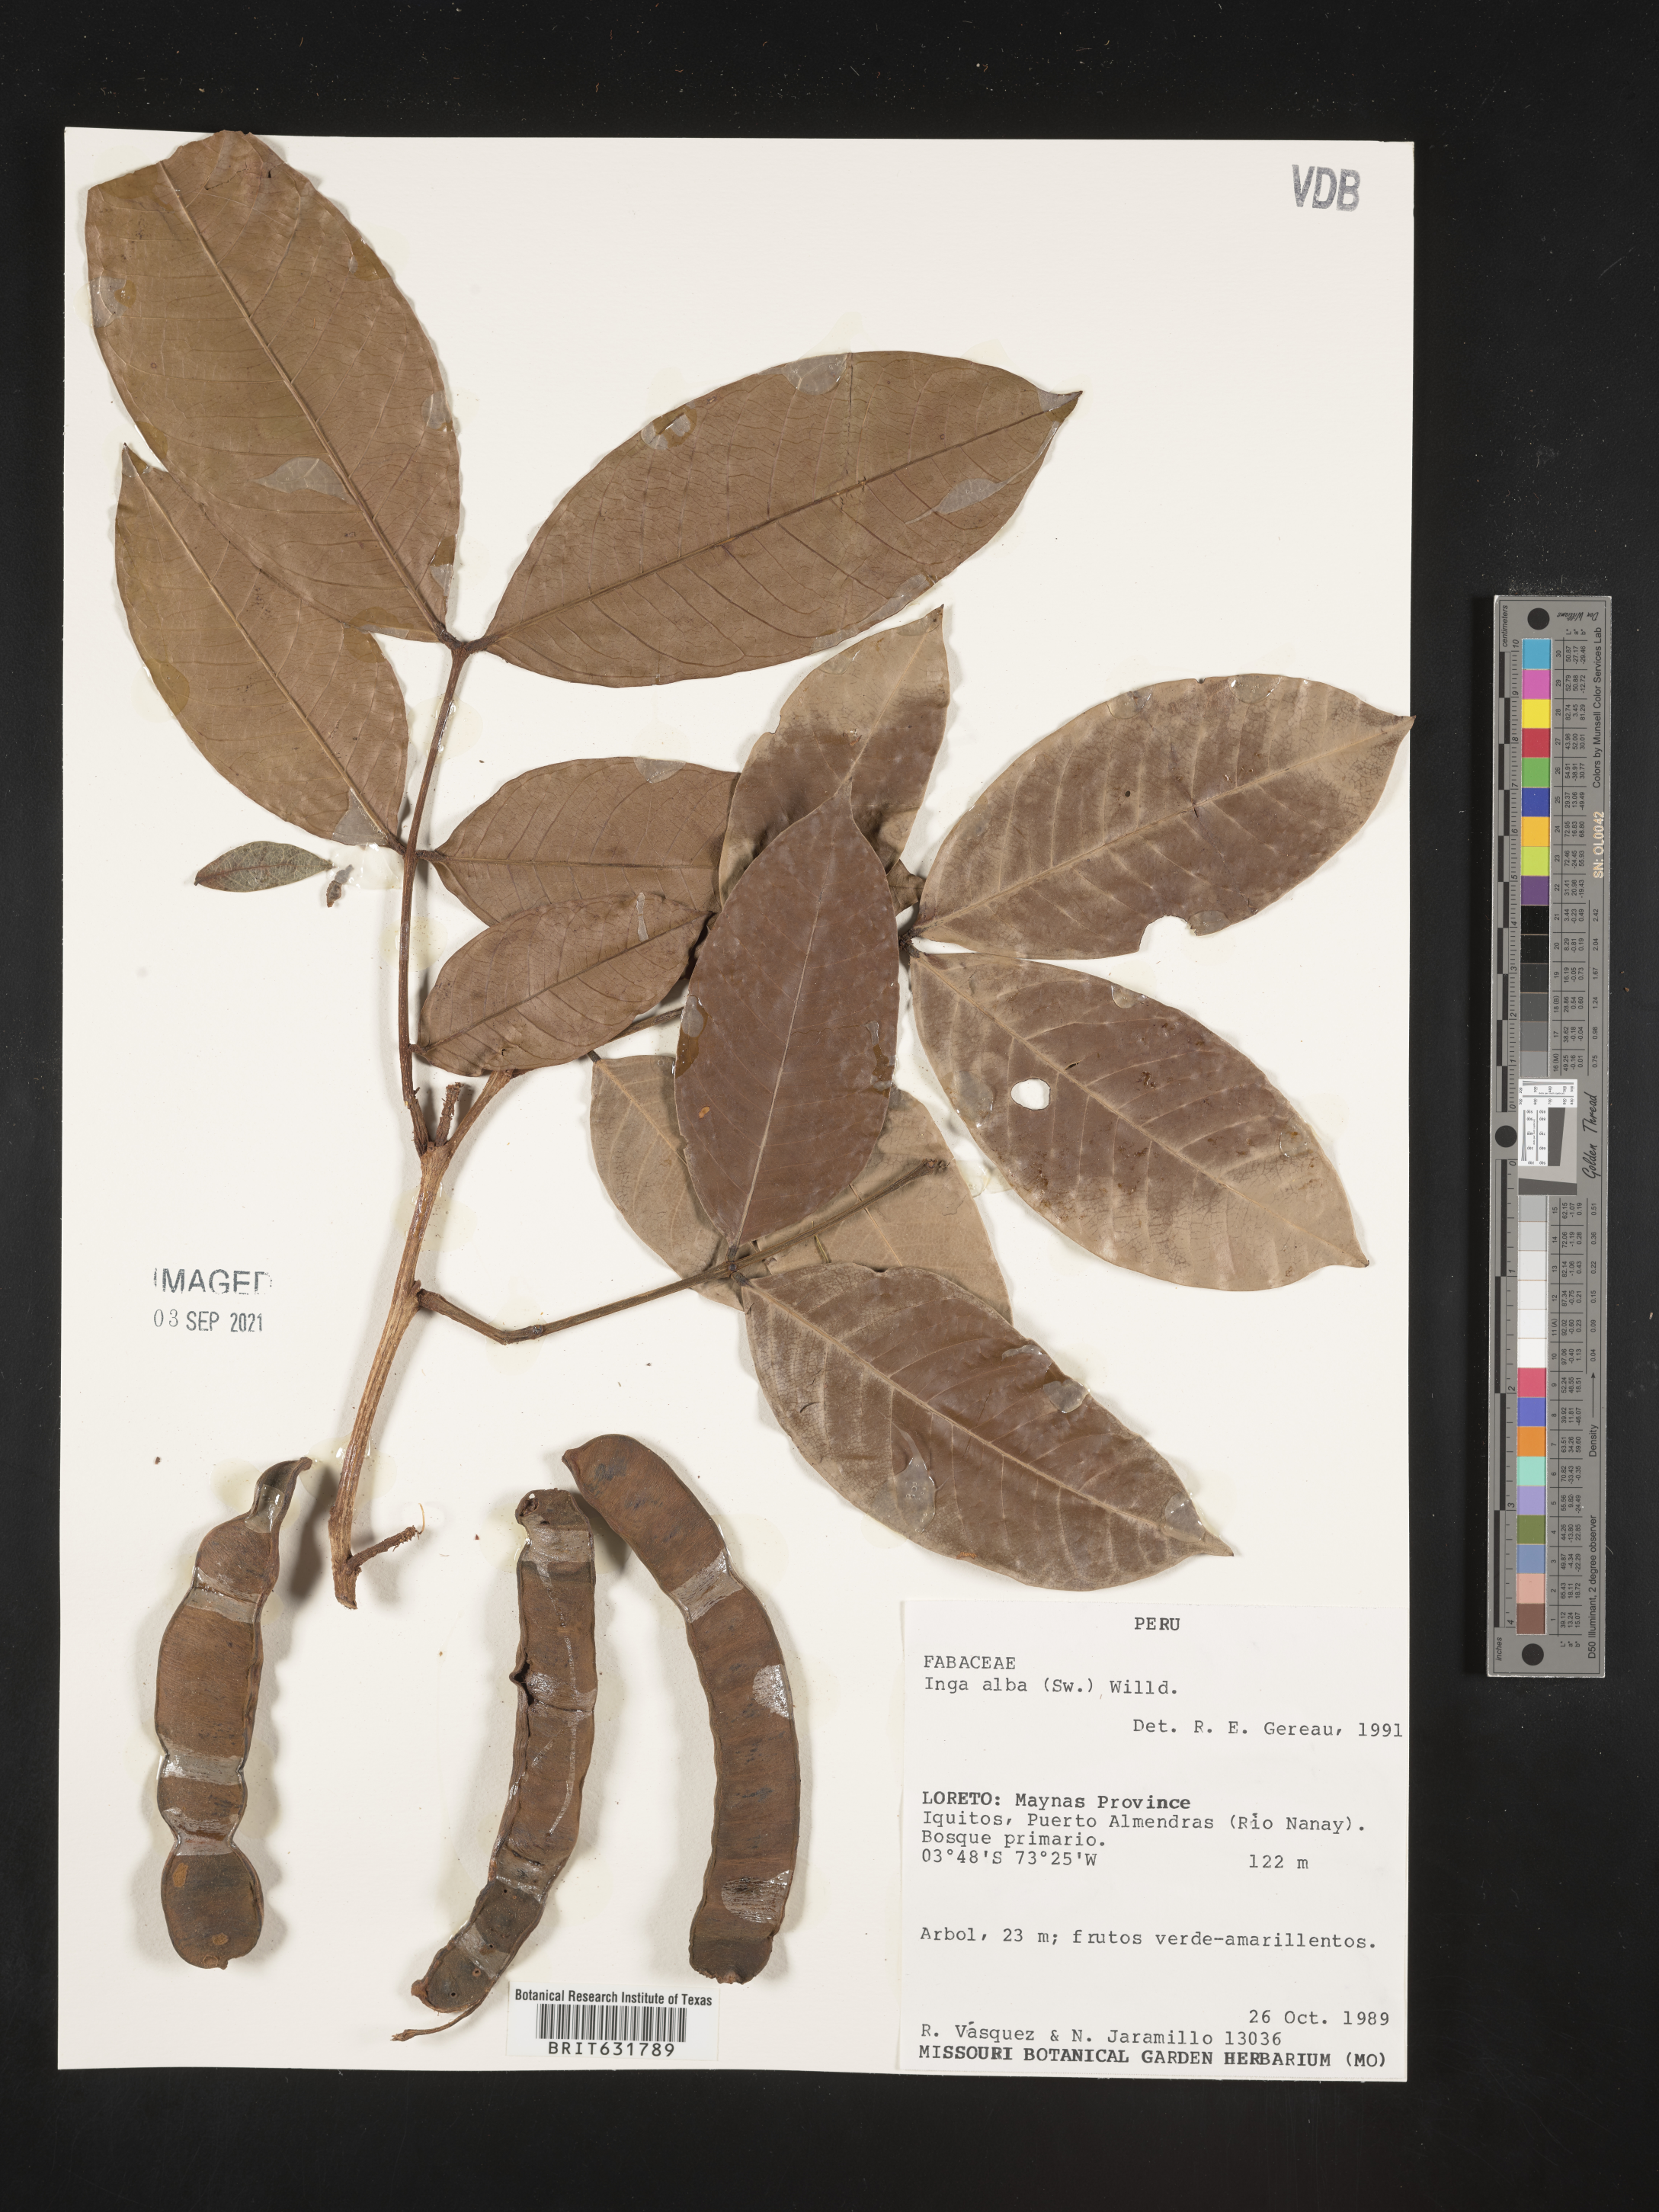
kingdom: Plantae
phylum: Tracheophyta
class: Magnoliopsida
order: Fabales
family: Fabaceae
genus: Inga
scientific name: Inga
